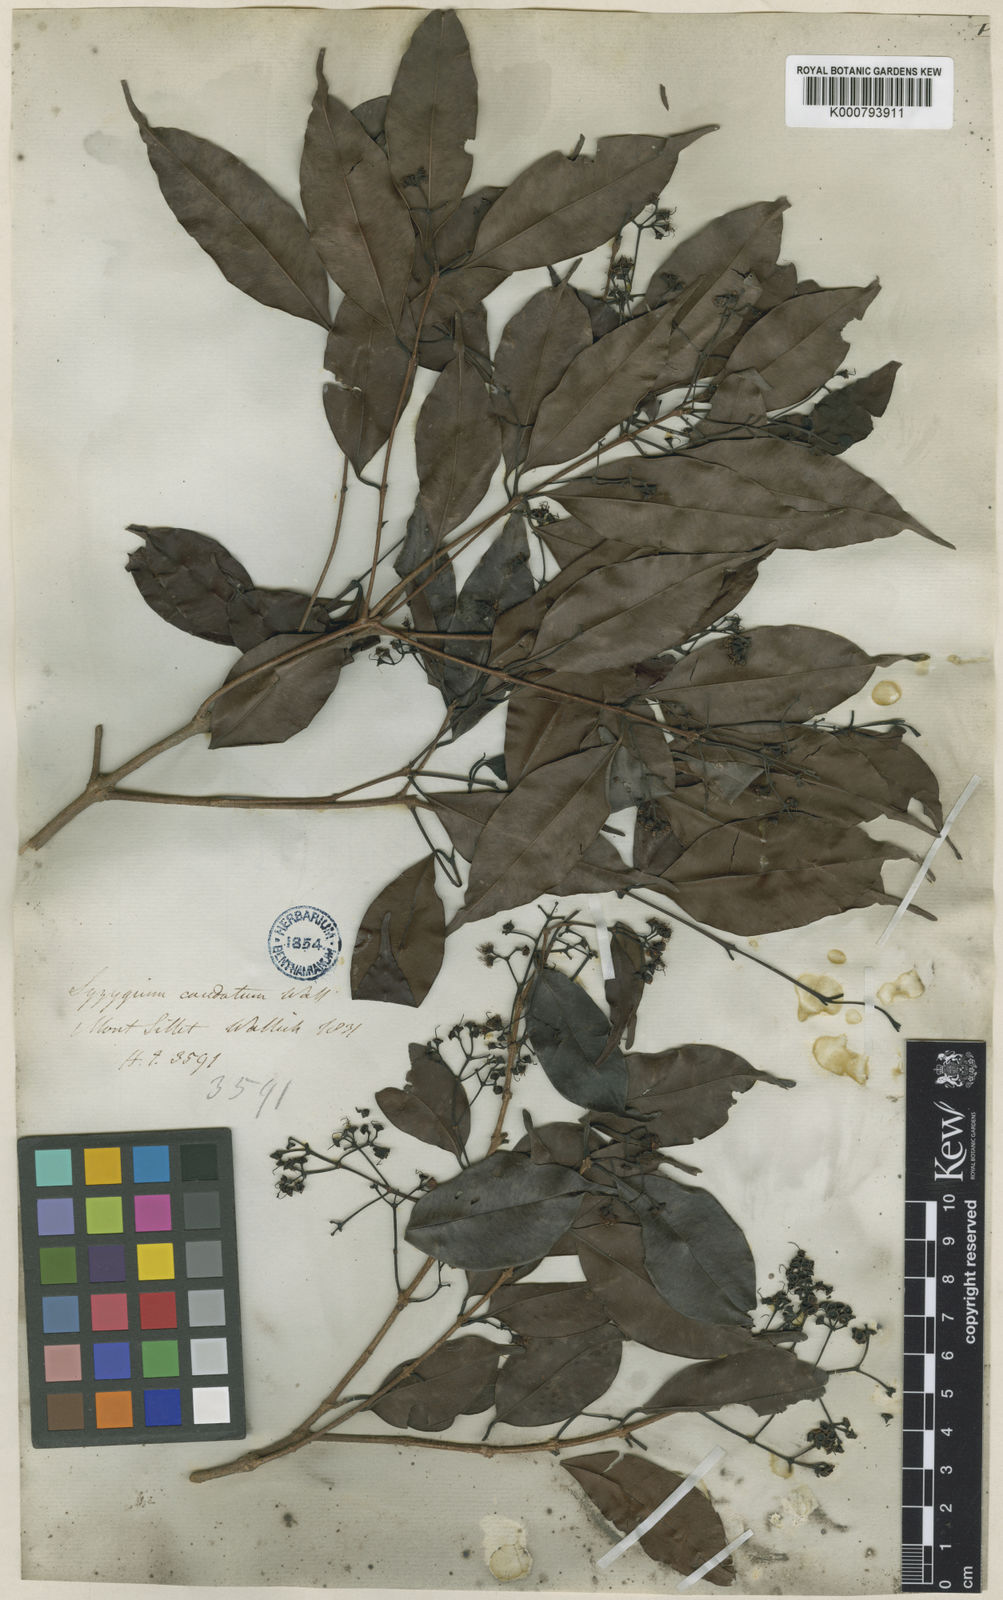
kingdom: Plantae
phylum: Tracheophyta
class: Magnoliopsida
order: Myrtales
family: Myrtaceae
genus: Syzygium
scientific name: Syzygium cymosum
